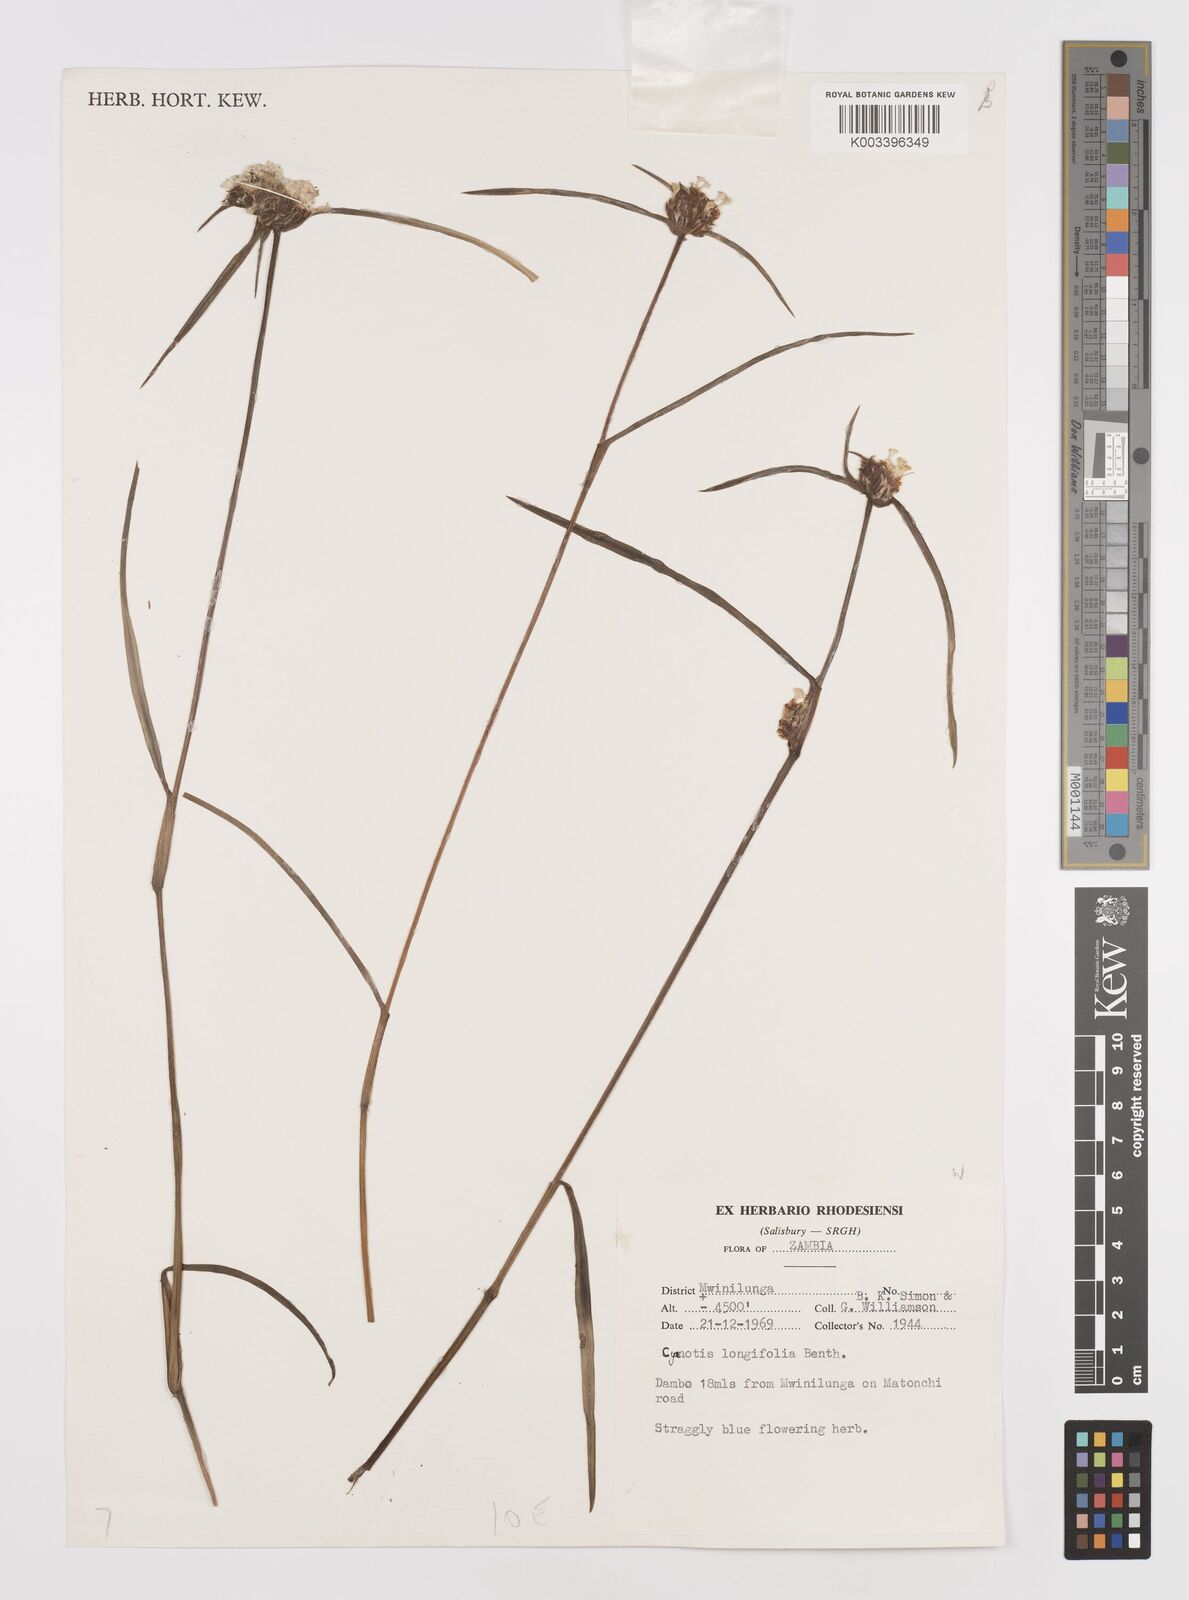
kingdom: Plantae
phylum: Tracheophyta
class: Liliopsida
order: Commelinales
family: Commelinaceae
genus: Cyanotis
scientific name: Cyanotis longifolia
